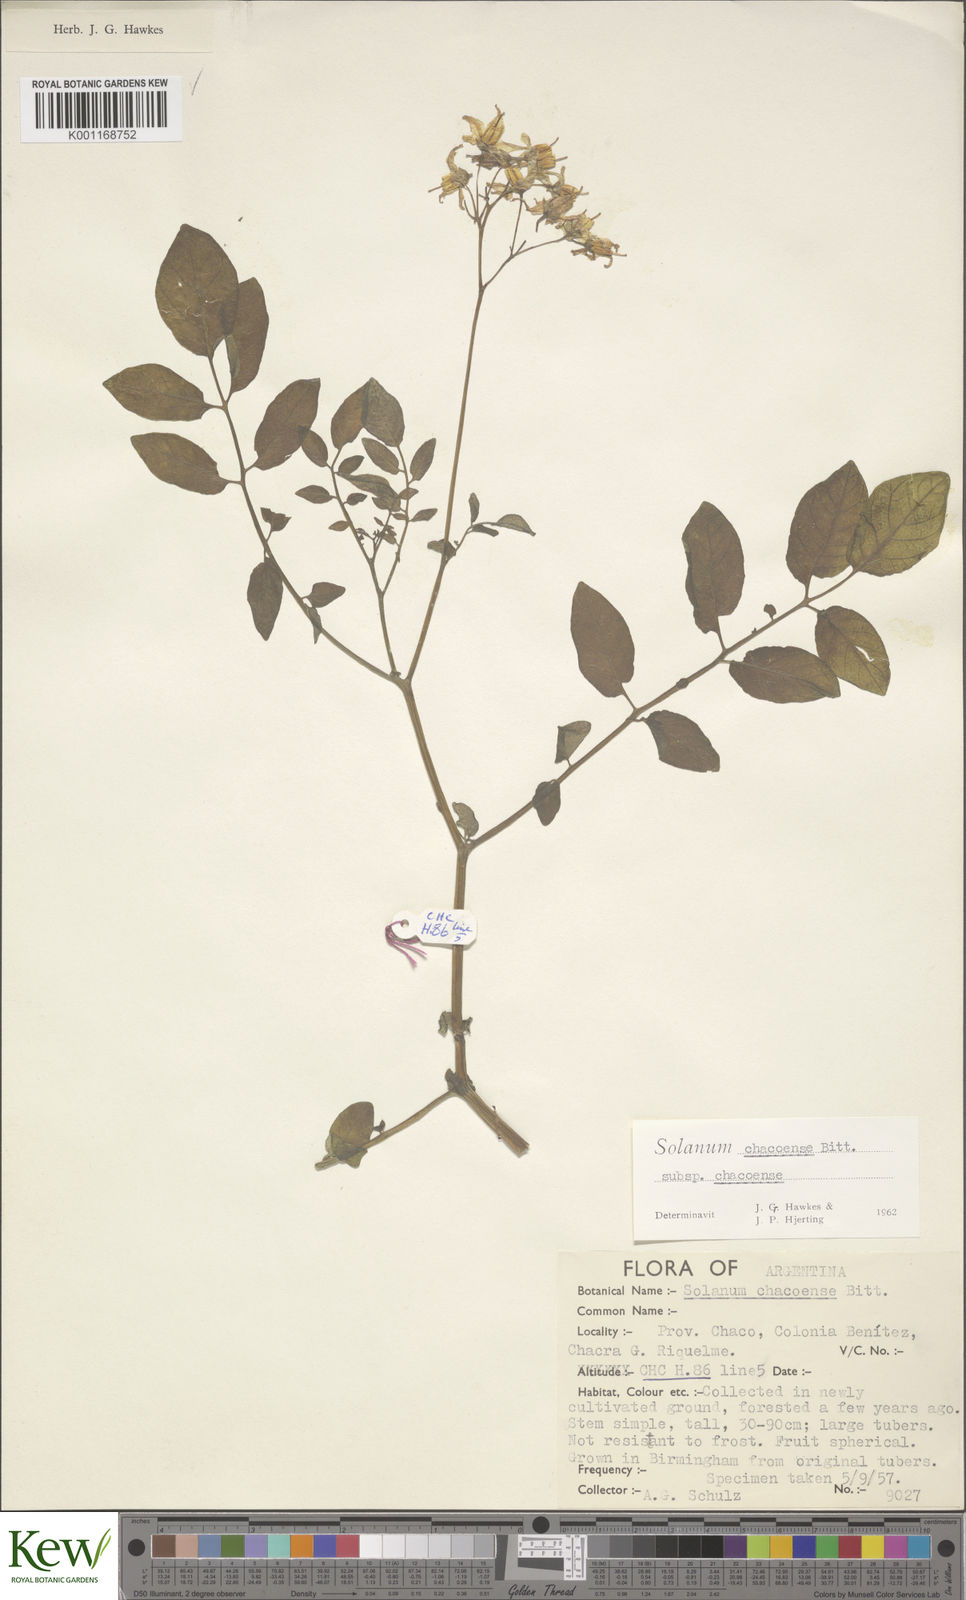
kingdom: Plantae
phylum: Tracheophyta
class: Magnoliopsida
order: Solanales
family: Solanaceae
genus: Solanum
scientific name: Solanum chacoense
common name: Chaco potato
